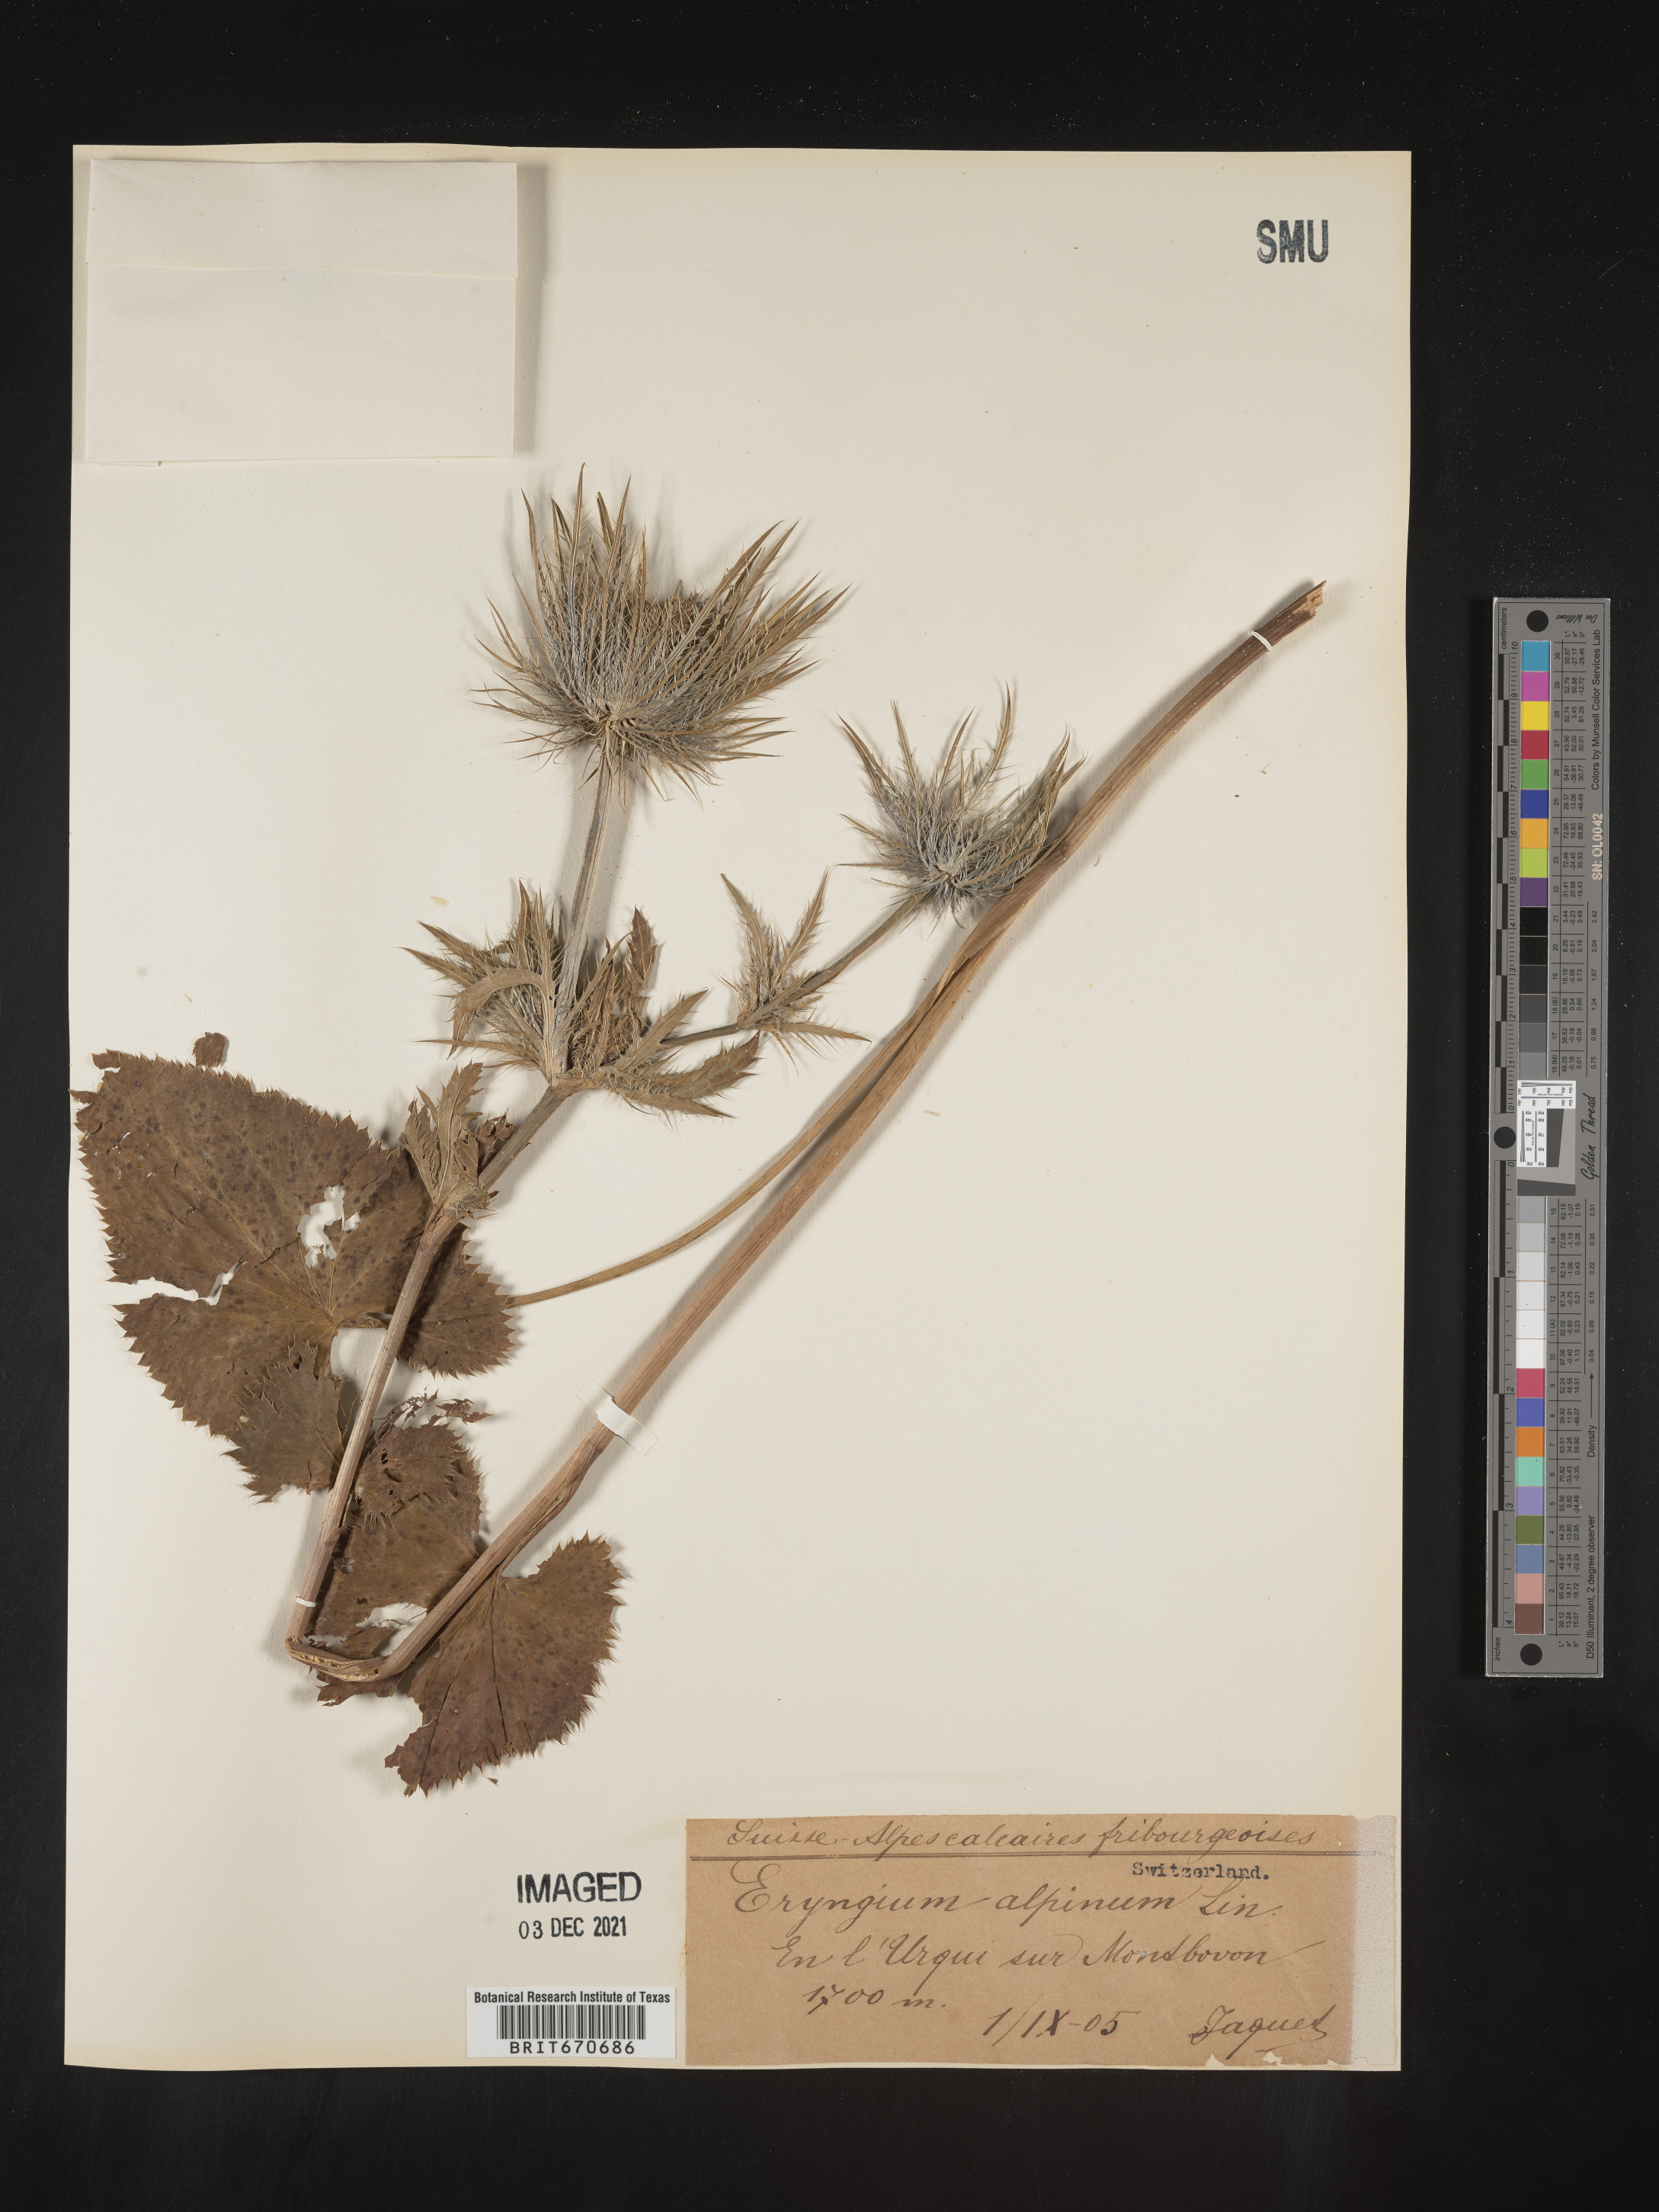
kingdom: Plantae
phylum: Tracheophyta
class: Magnoliopsida
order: Apiales
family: Apiaceae
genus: Eryngium
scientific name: Eryngium
